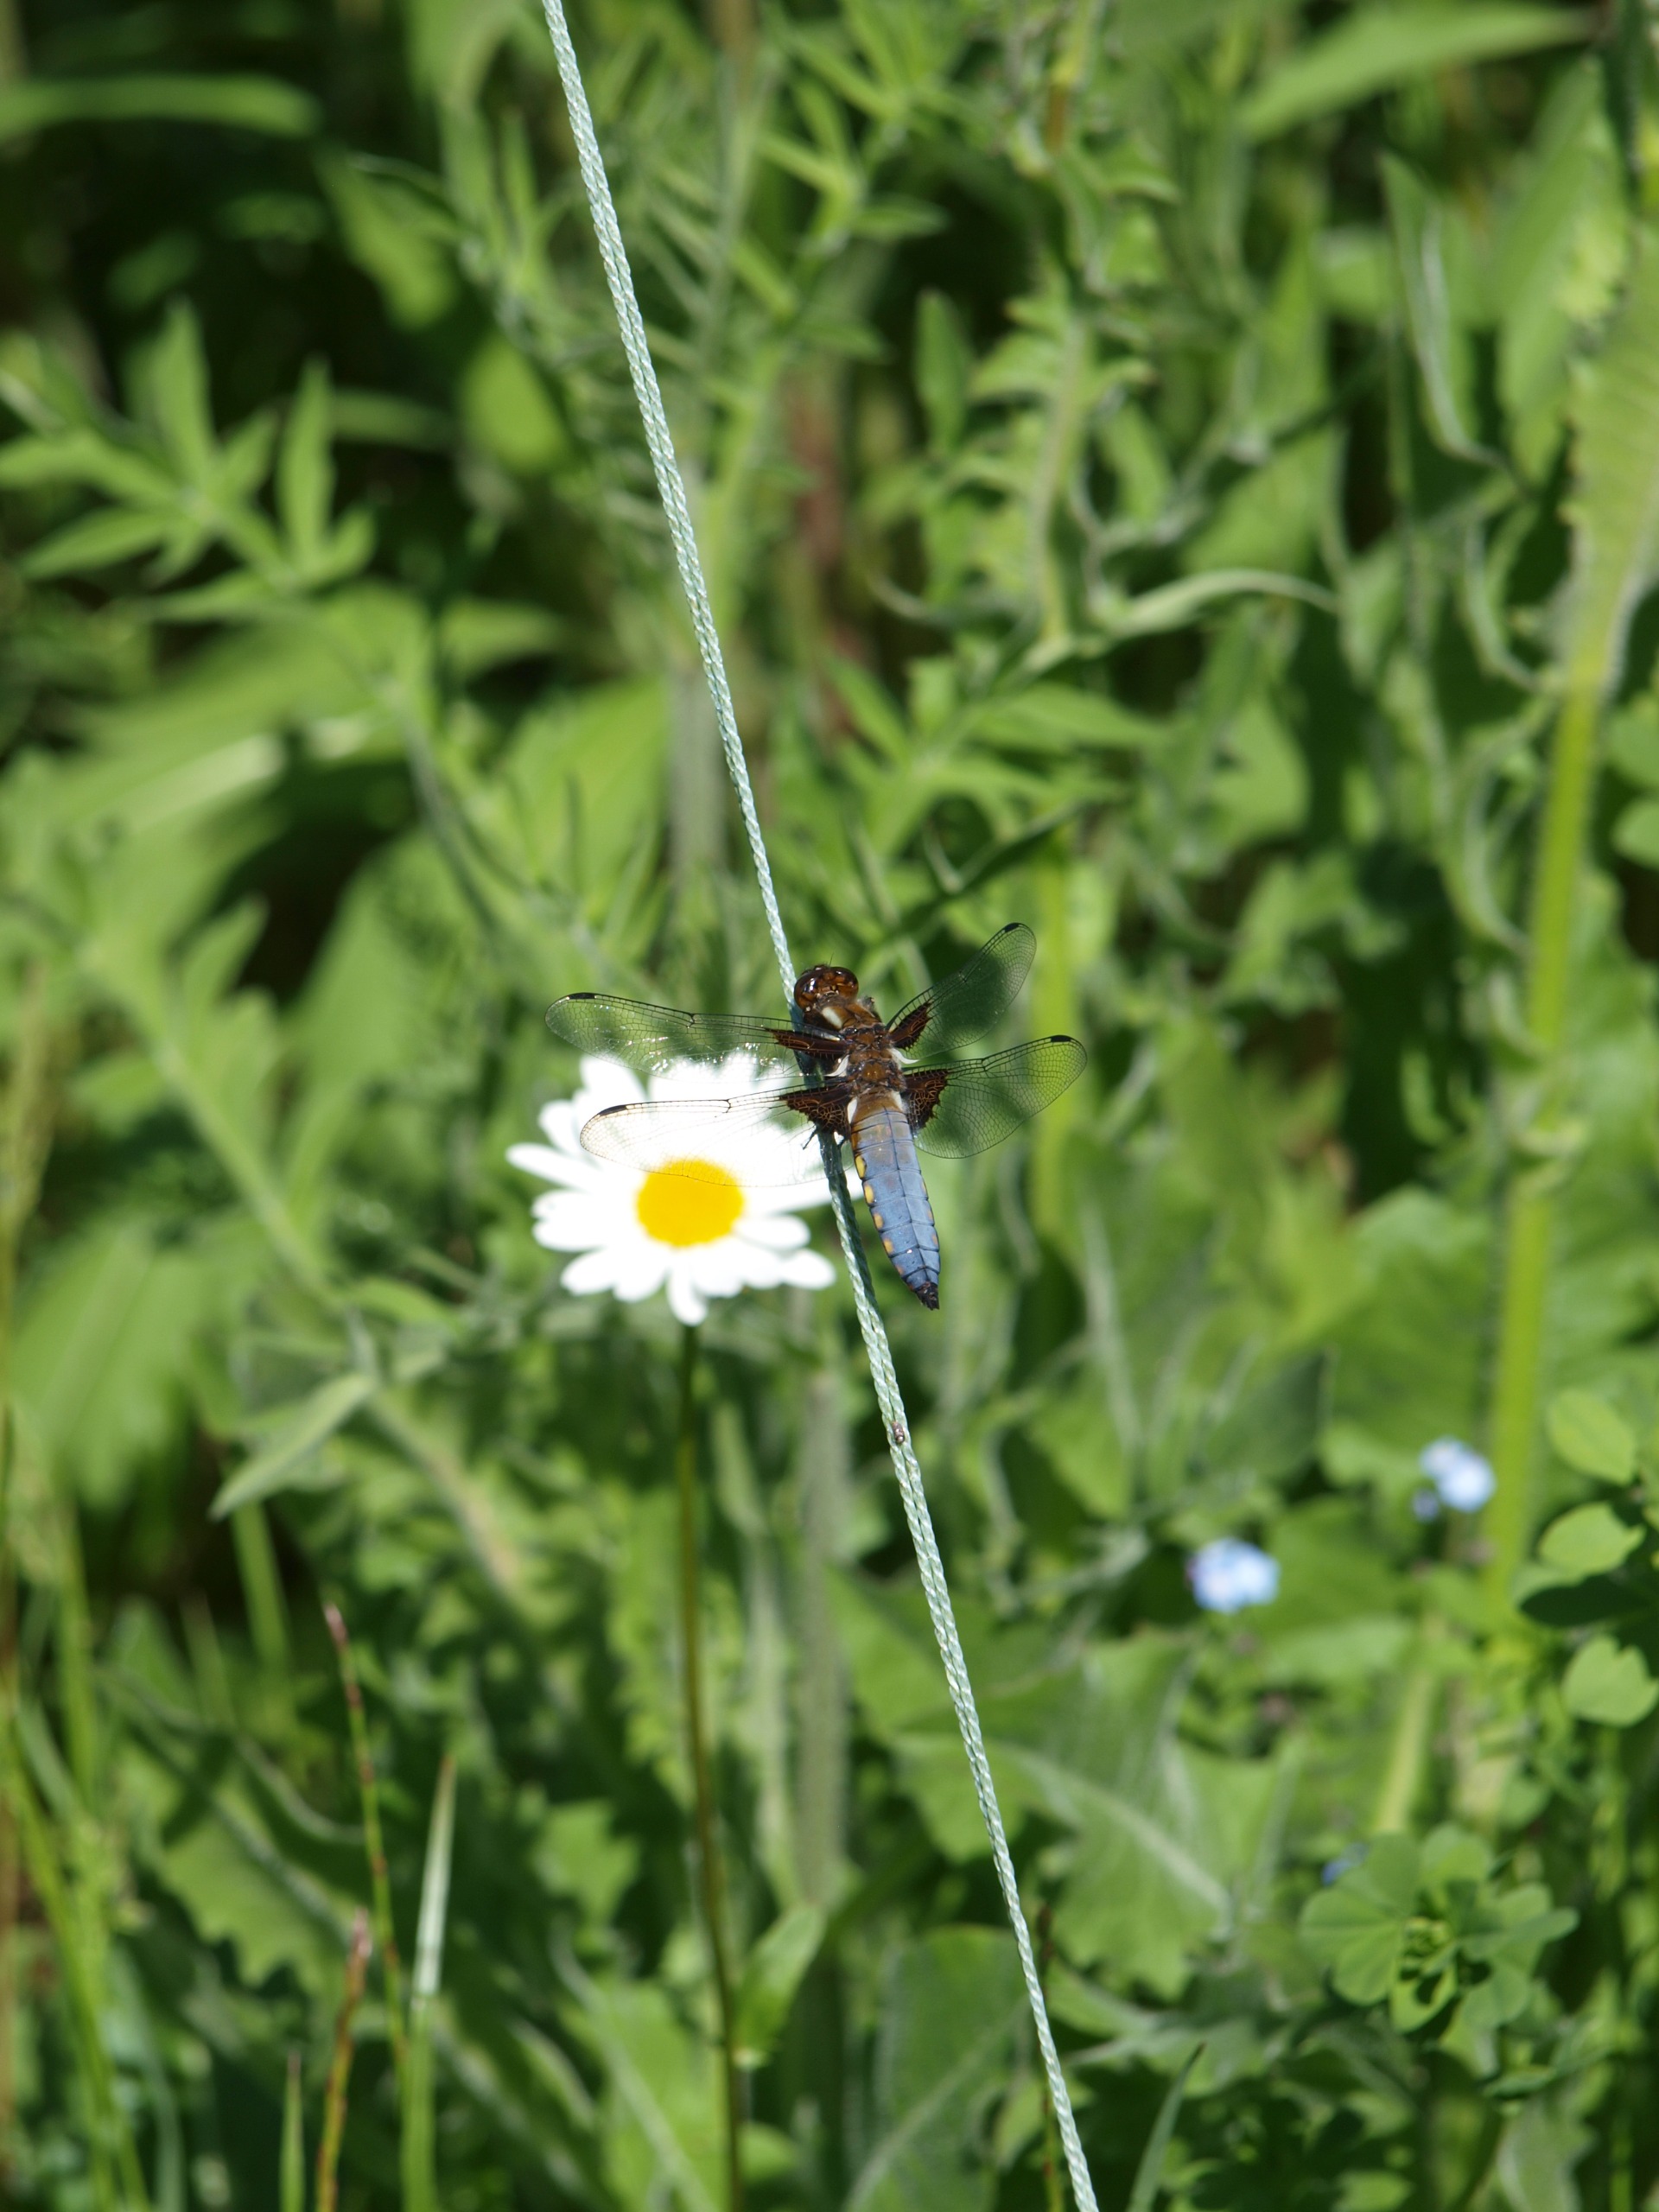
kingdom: Animalia
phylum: Arthropoda
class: Insecta
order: Odonata
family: Libellulidae
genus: Libellula
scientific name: Libellula depressa
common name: Blå libel
